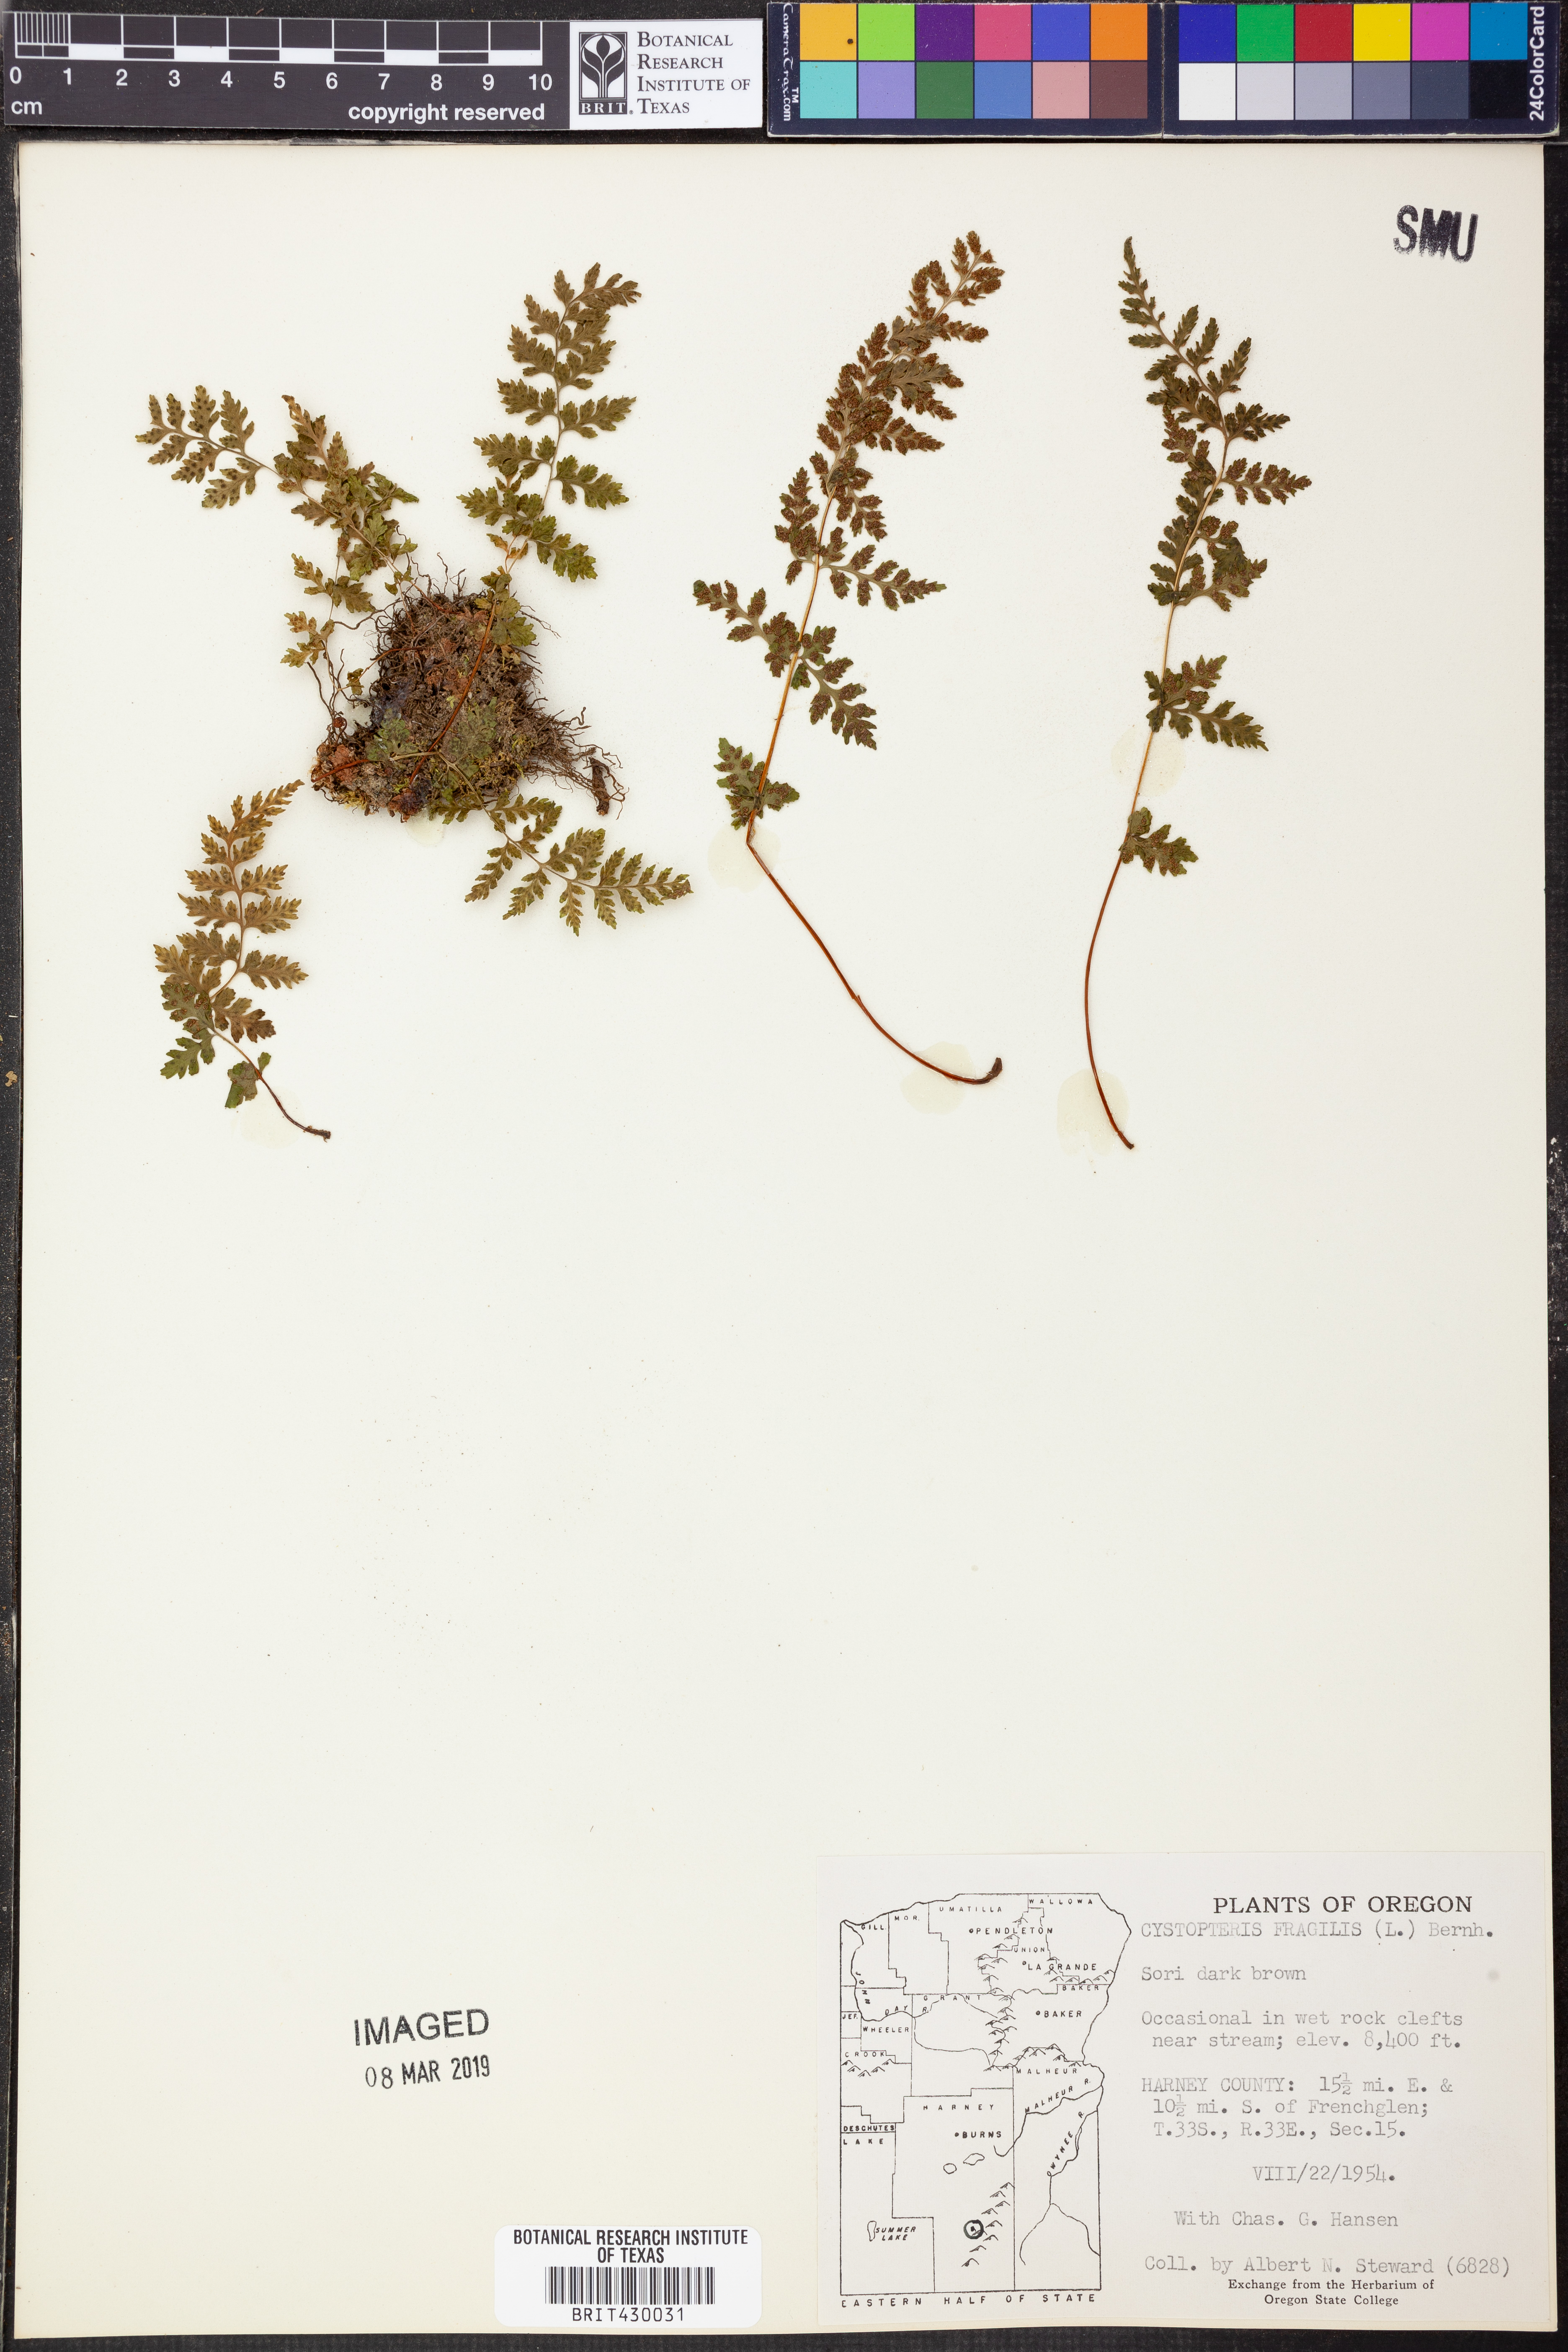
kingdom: Plantae
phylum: Tracheophyta
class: Polypodiopsida
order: Polypodiales
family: Cystopteridaceae
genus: Cystopteris
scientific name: Cystopteris fragilis
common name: Brittle bladder fern
